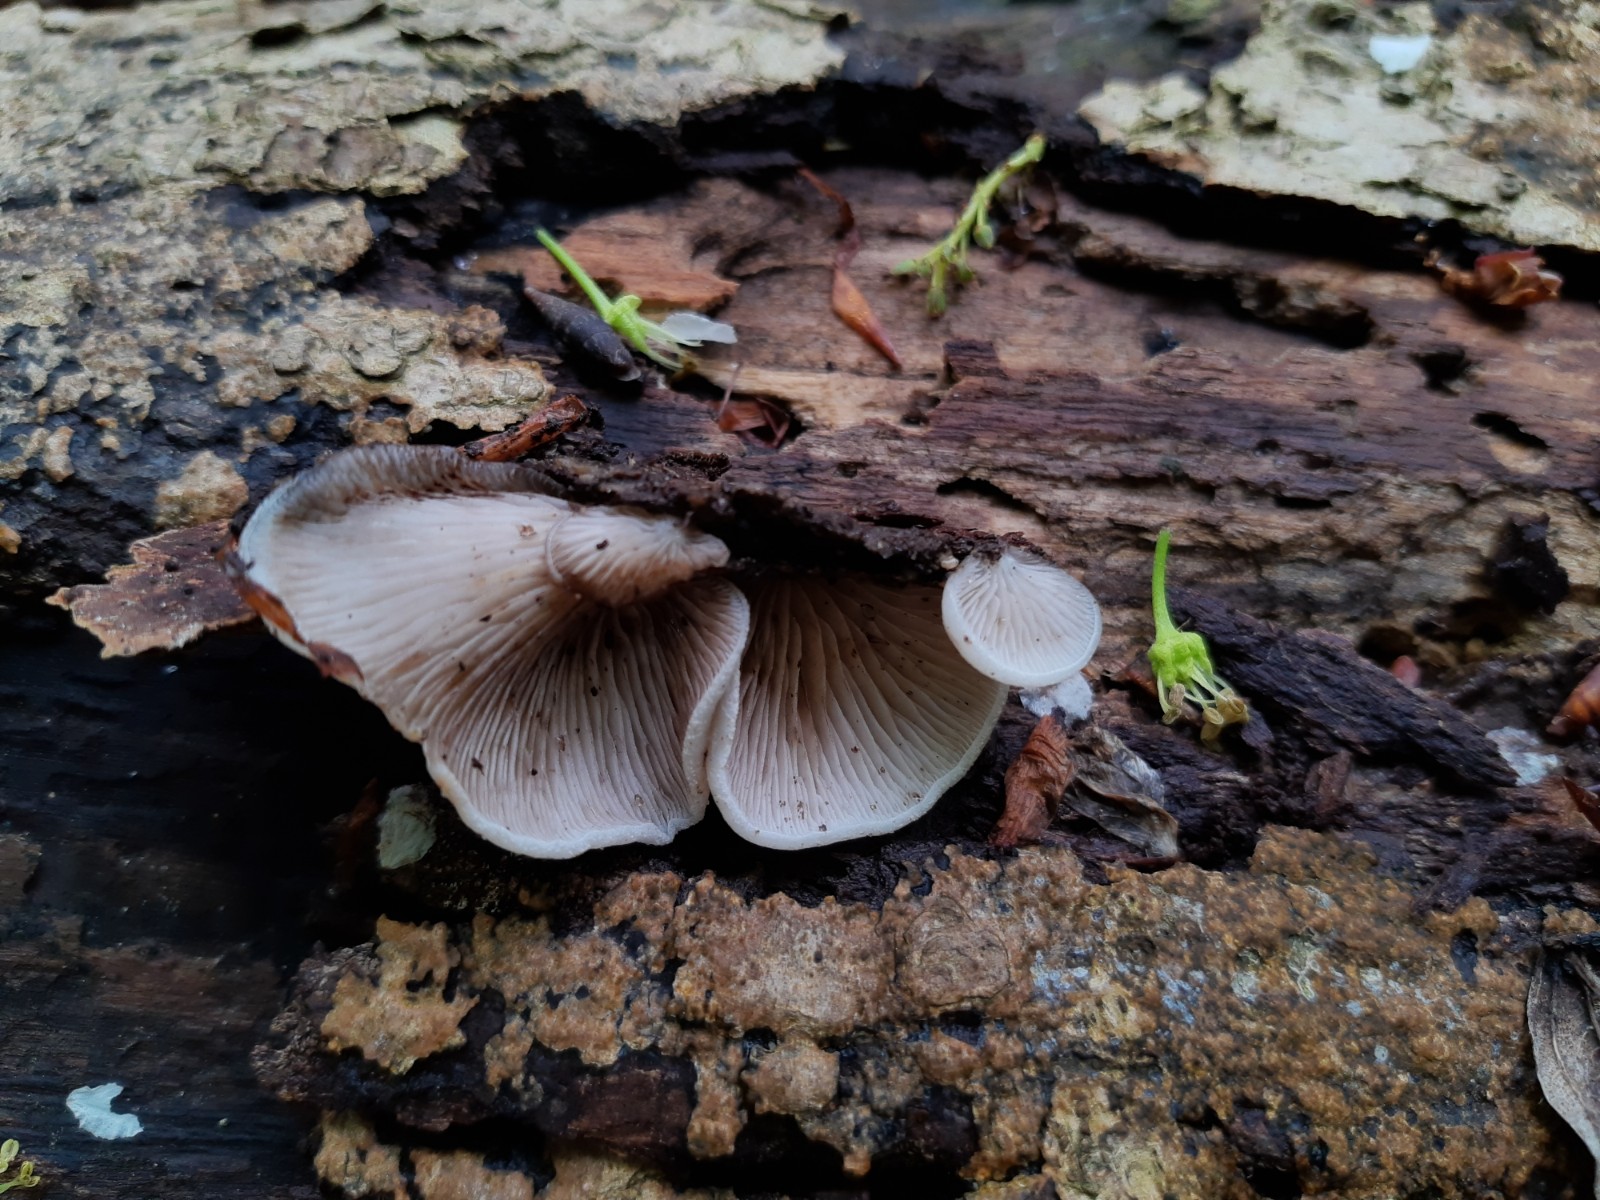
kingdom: Fungi
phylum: Basidiomycota
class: Agaricomycetes
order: Agaricales
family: Crepidotaceae
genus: Crepidotus
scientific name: Crepidotus mollis
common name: blød muslingesvamp
